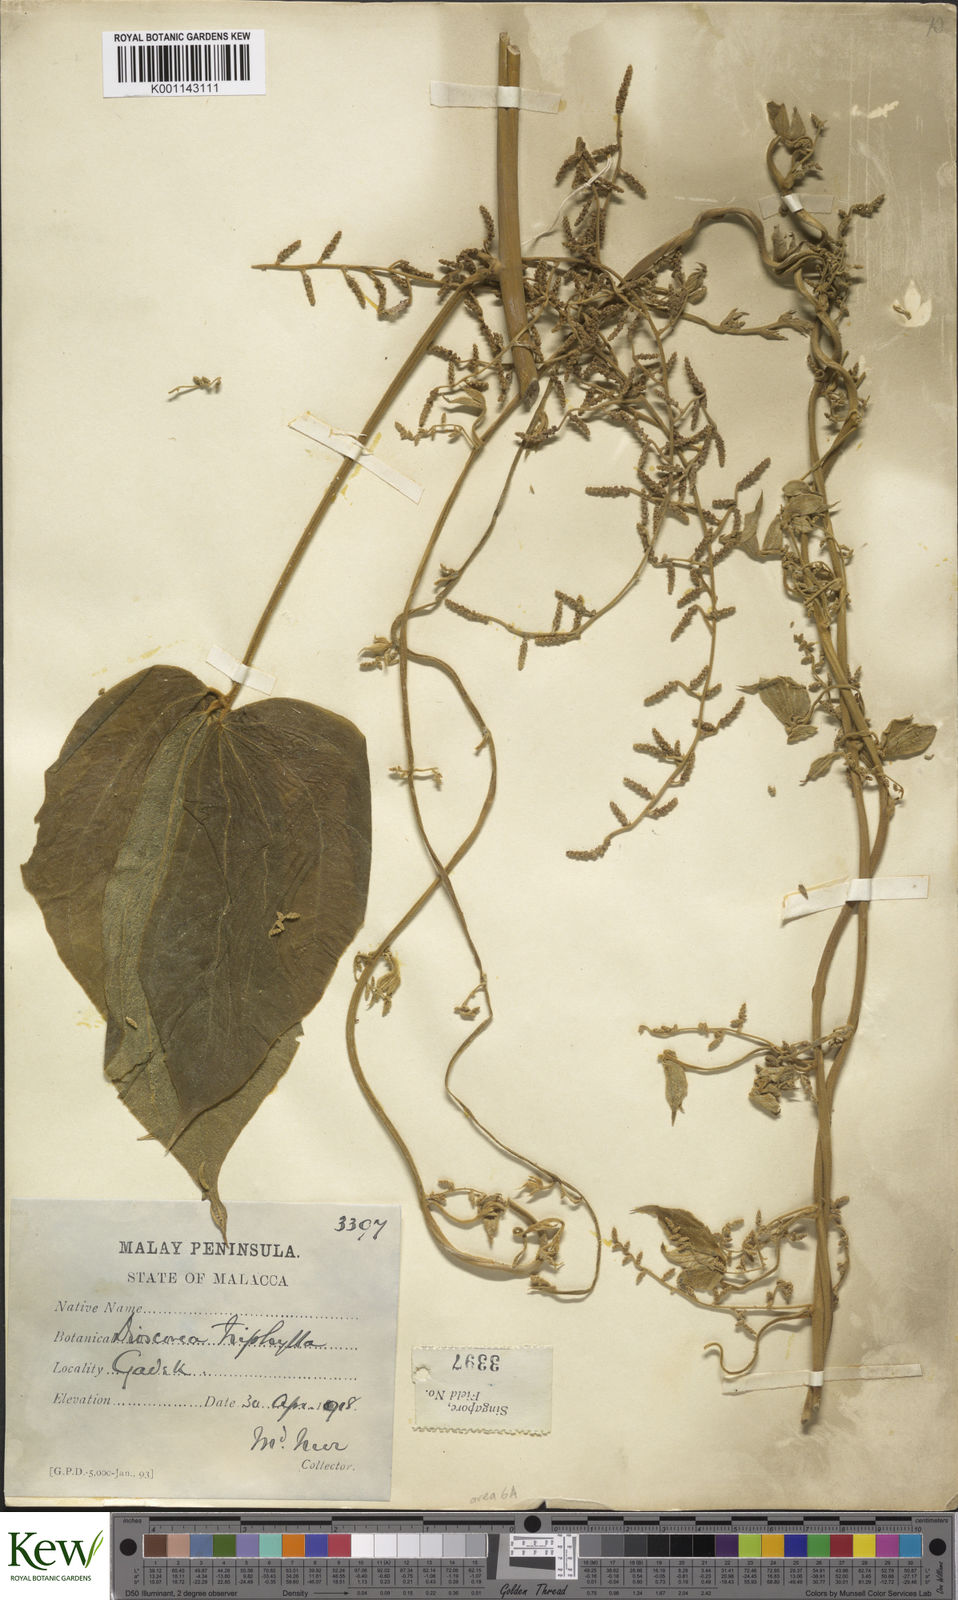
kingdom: Plantae
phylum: Tracheophyta
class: Liliopsida
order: Dioscoreales
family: Dioscoreaceae
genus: Dioscorea
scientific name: Dioscorea pentaphylla
